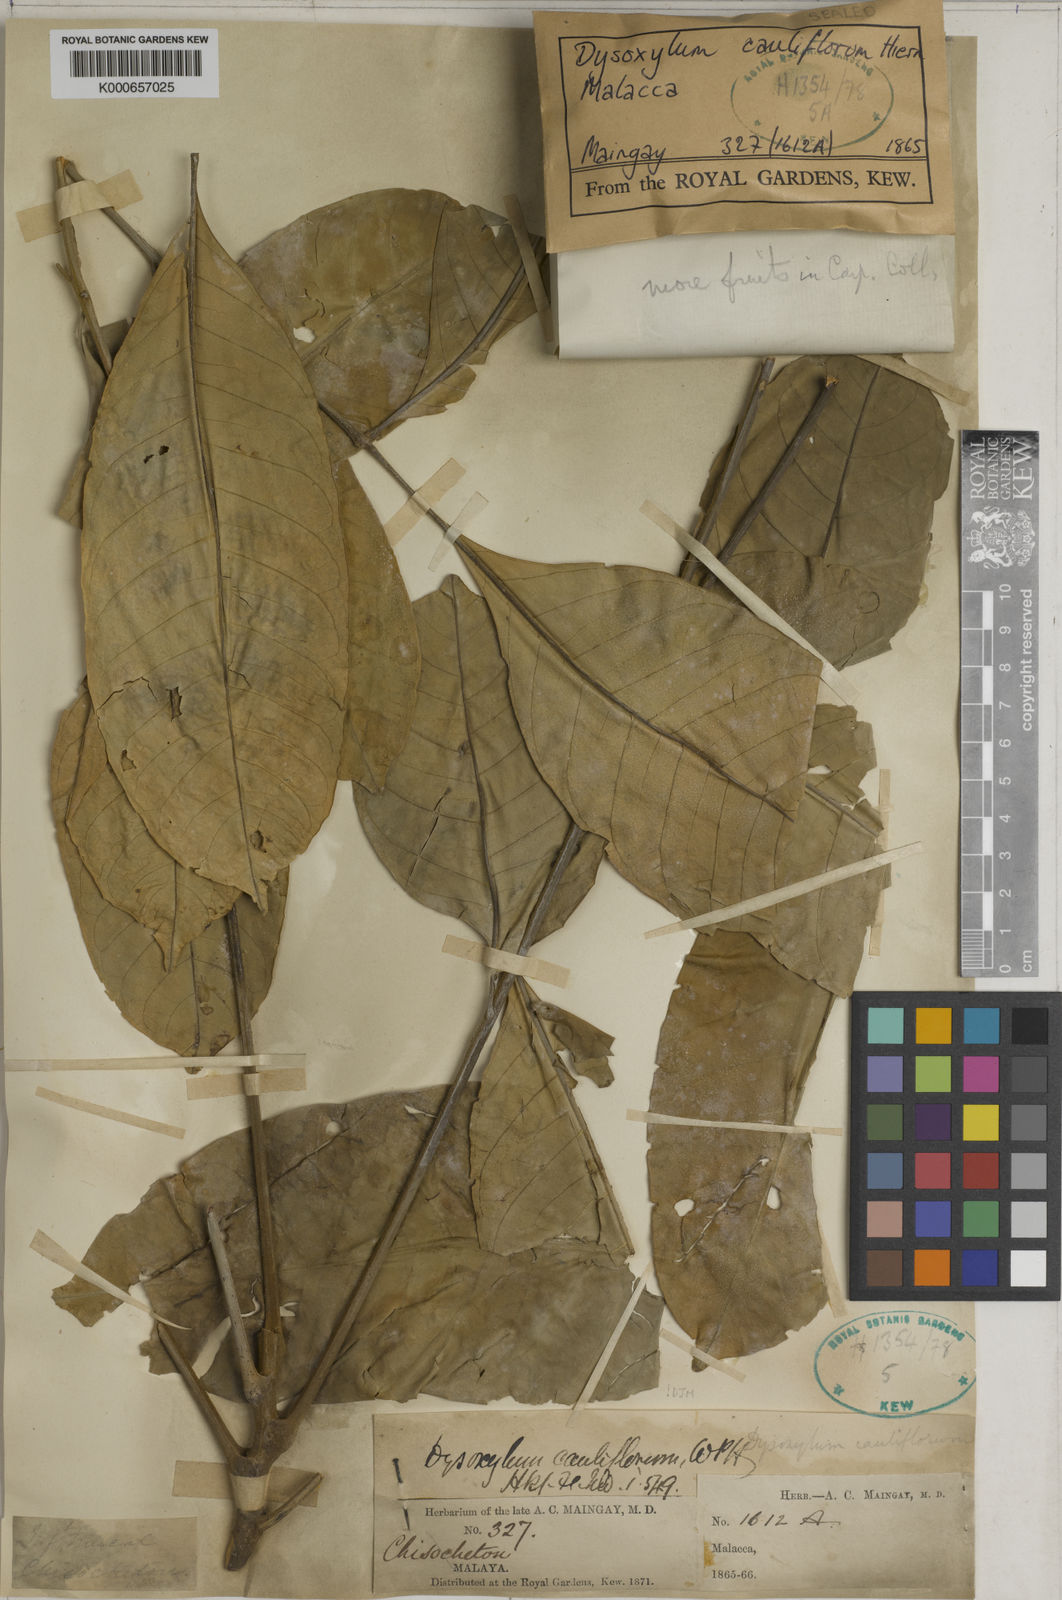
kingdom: Plantae
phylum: Tracheophyta
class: Magnoliopsida
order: Sapindales
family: Meliaceae
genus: Epicharis
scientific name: Epicharis cuneata
